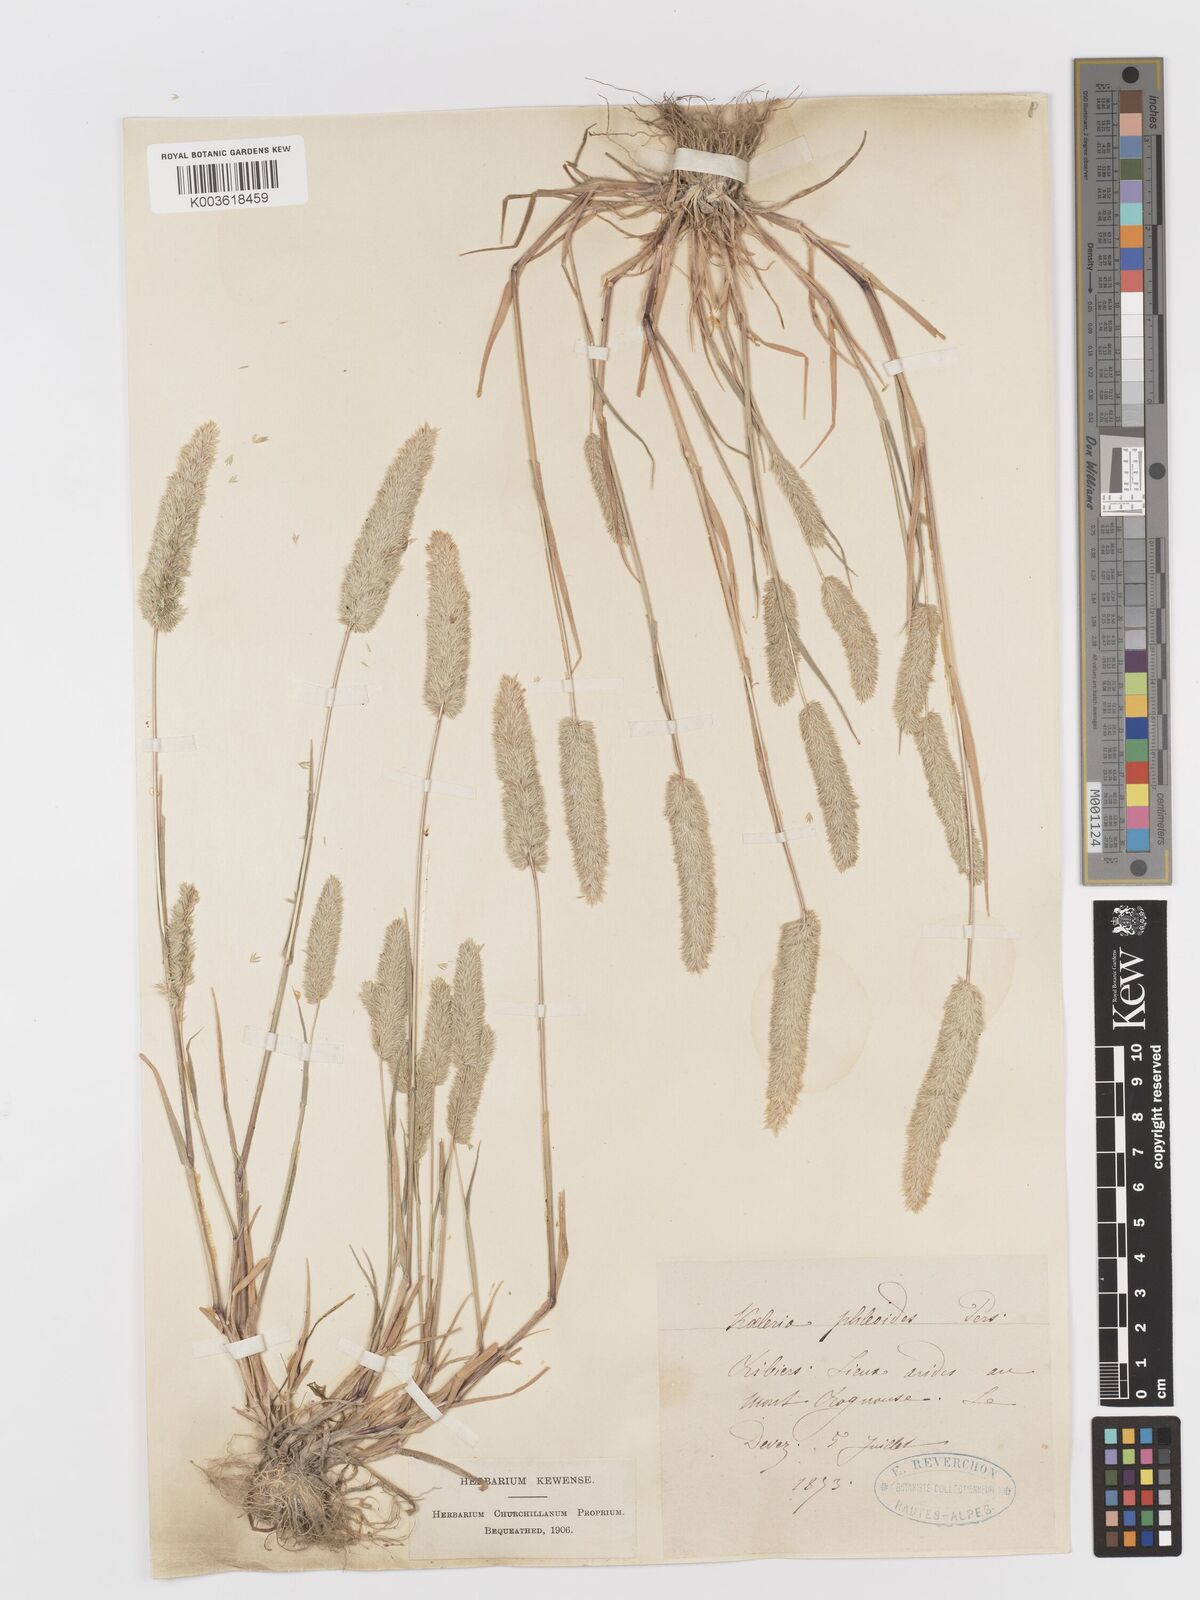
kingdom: Plantae
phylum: Tracheophyta
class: Liliopsida
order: Poales
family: Poaceae
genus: Rostraria
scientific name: Rostraria cristata
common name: Mediterranean hair-grass
